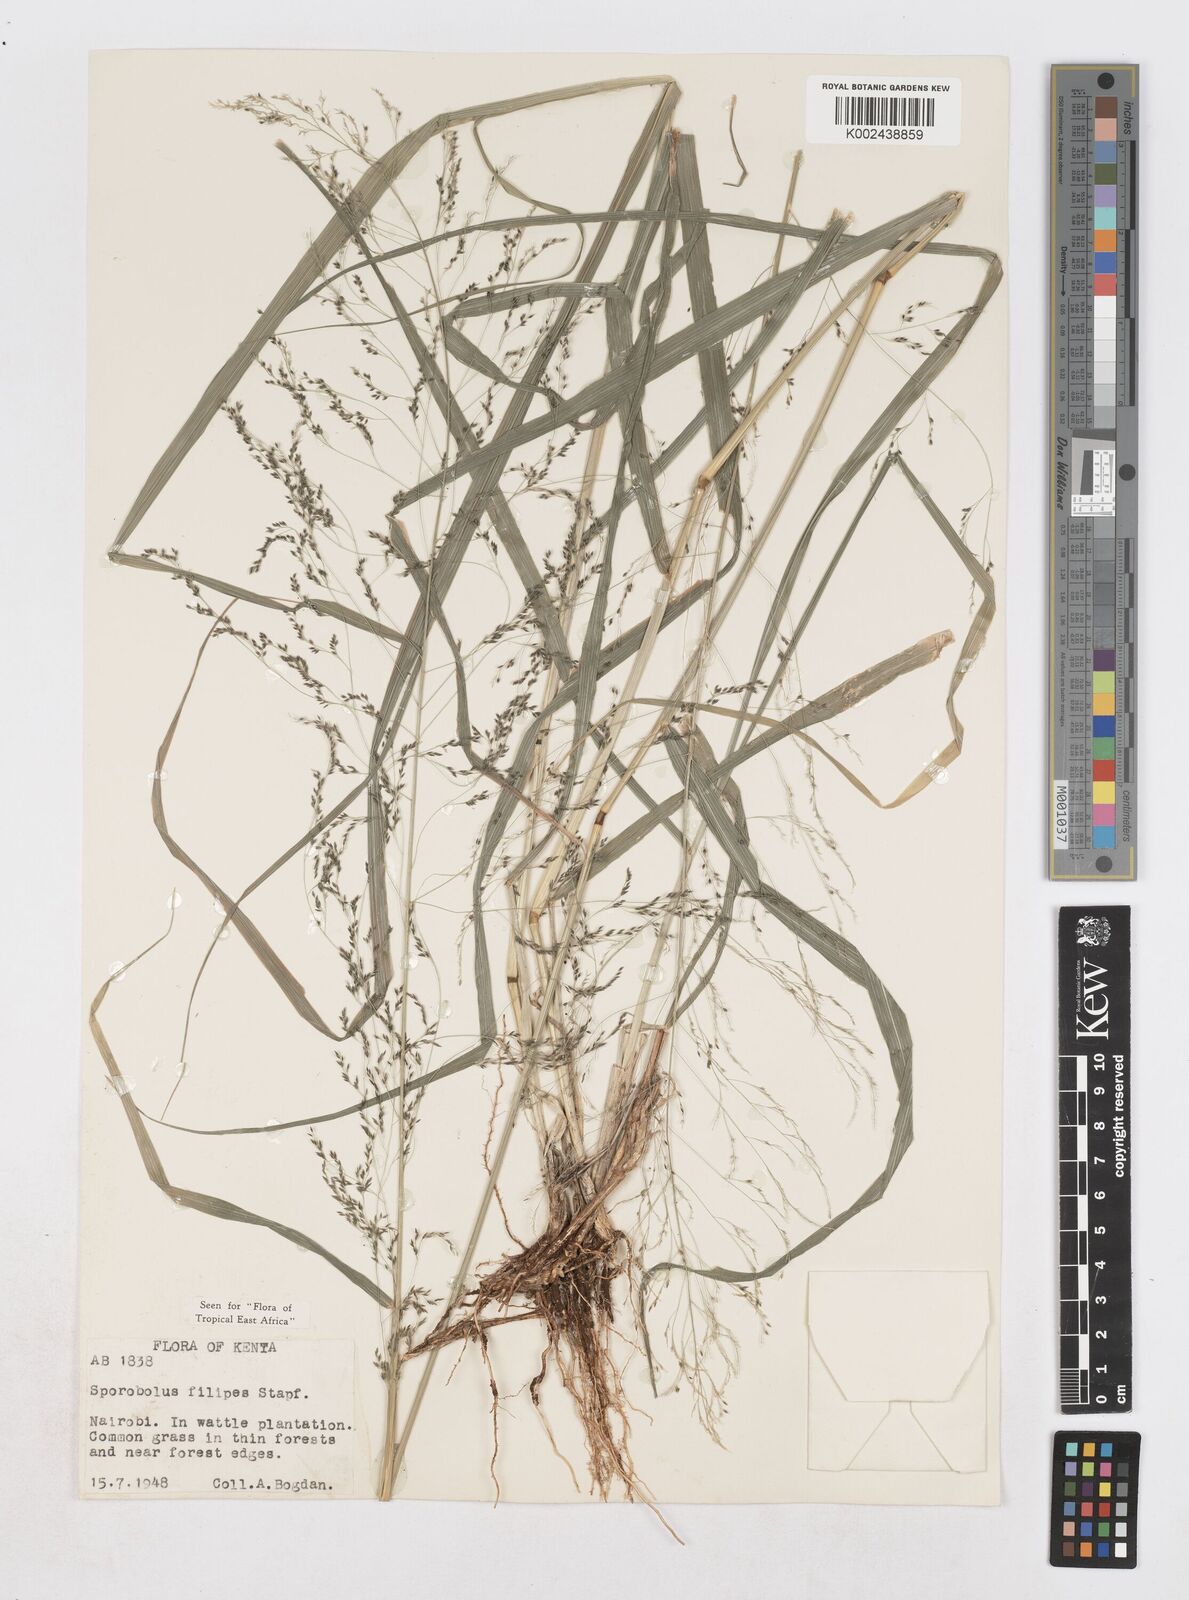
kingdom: Plantae
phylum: Tracheophyta
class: Liliopsida
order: Poales
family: Poaceae
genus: Sporobolus
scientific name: Sporobolus agrostoides
